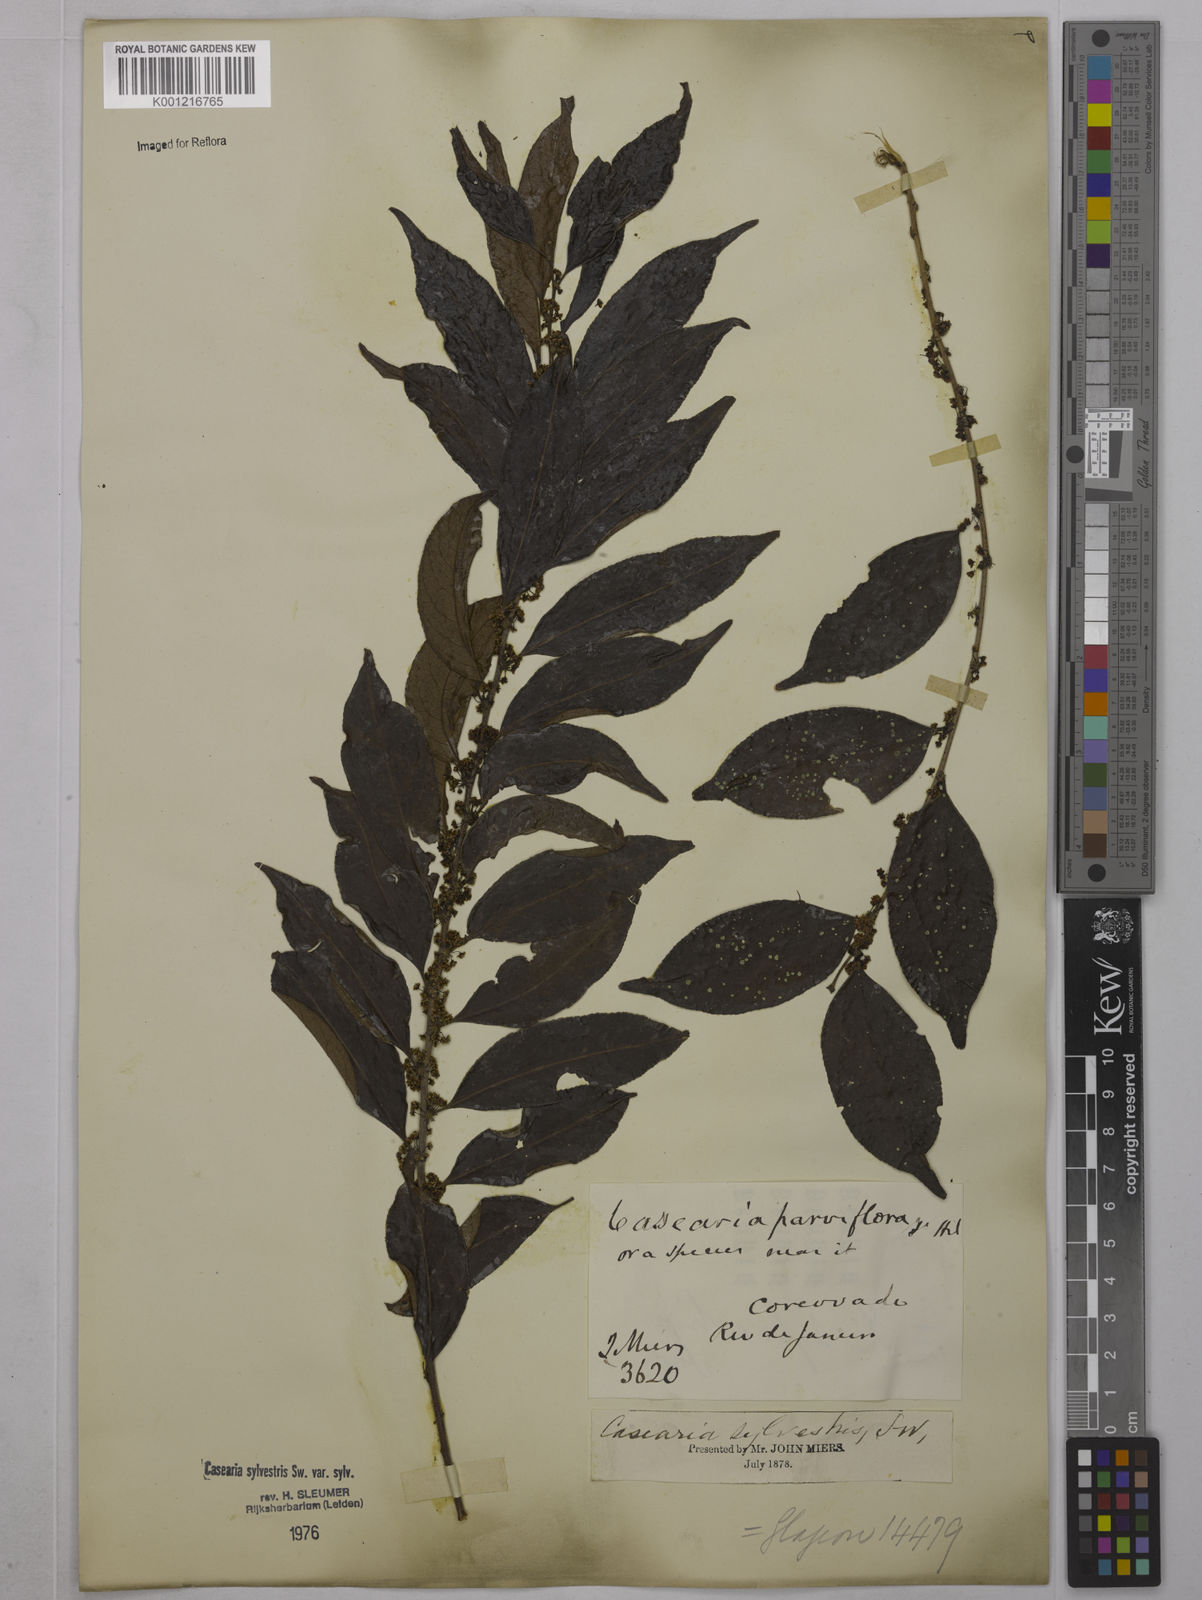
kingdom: Plantae
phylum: Tracheophyta
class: Magnoliopsida
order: Malpighiales
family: Salicaceae
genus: Casearia
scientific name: Casearia sylvestris
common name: Wild sage
